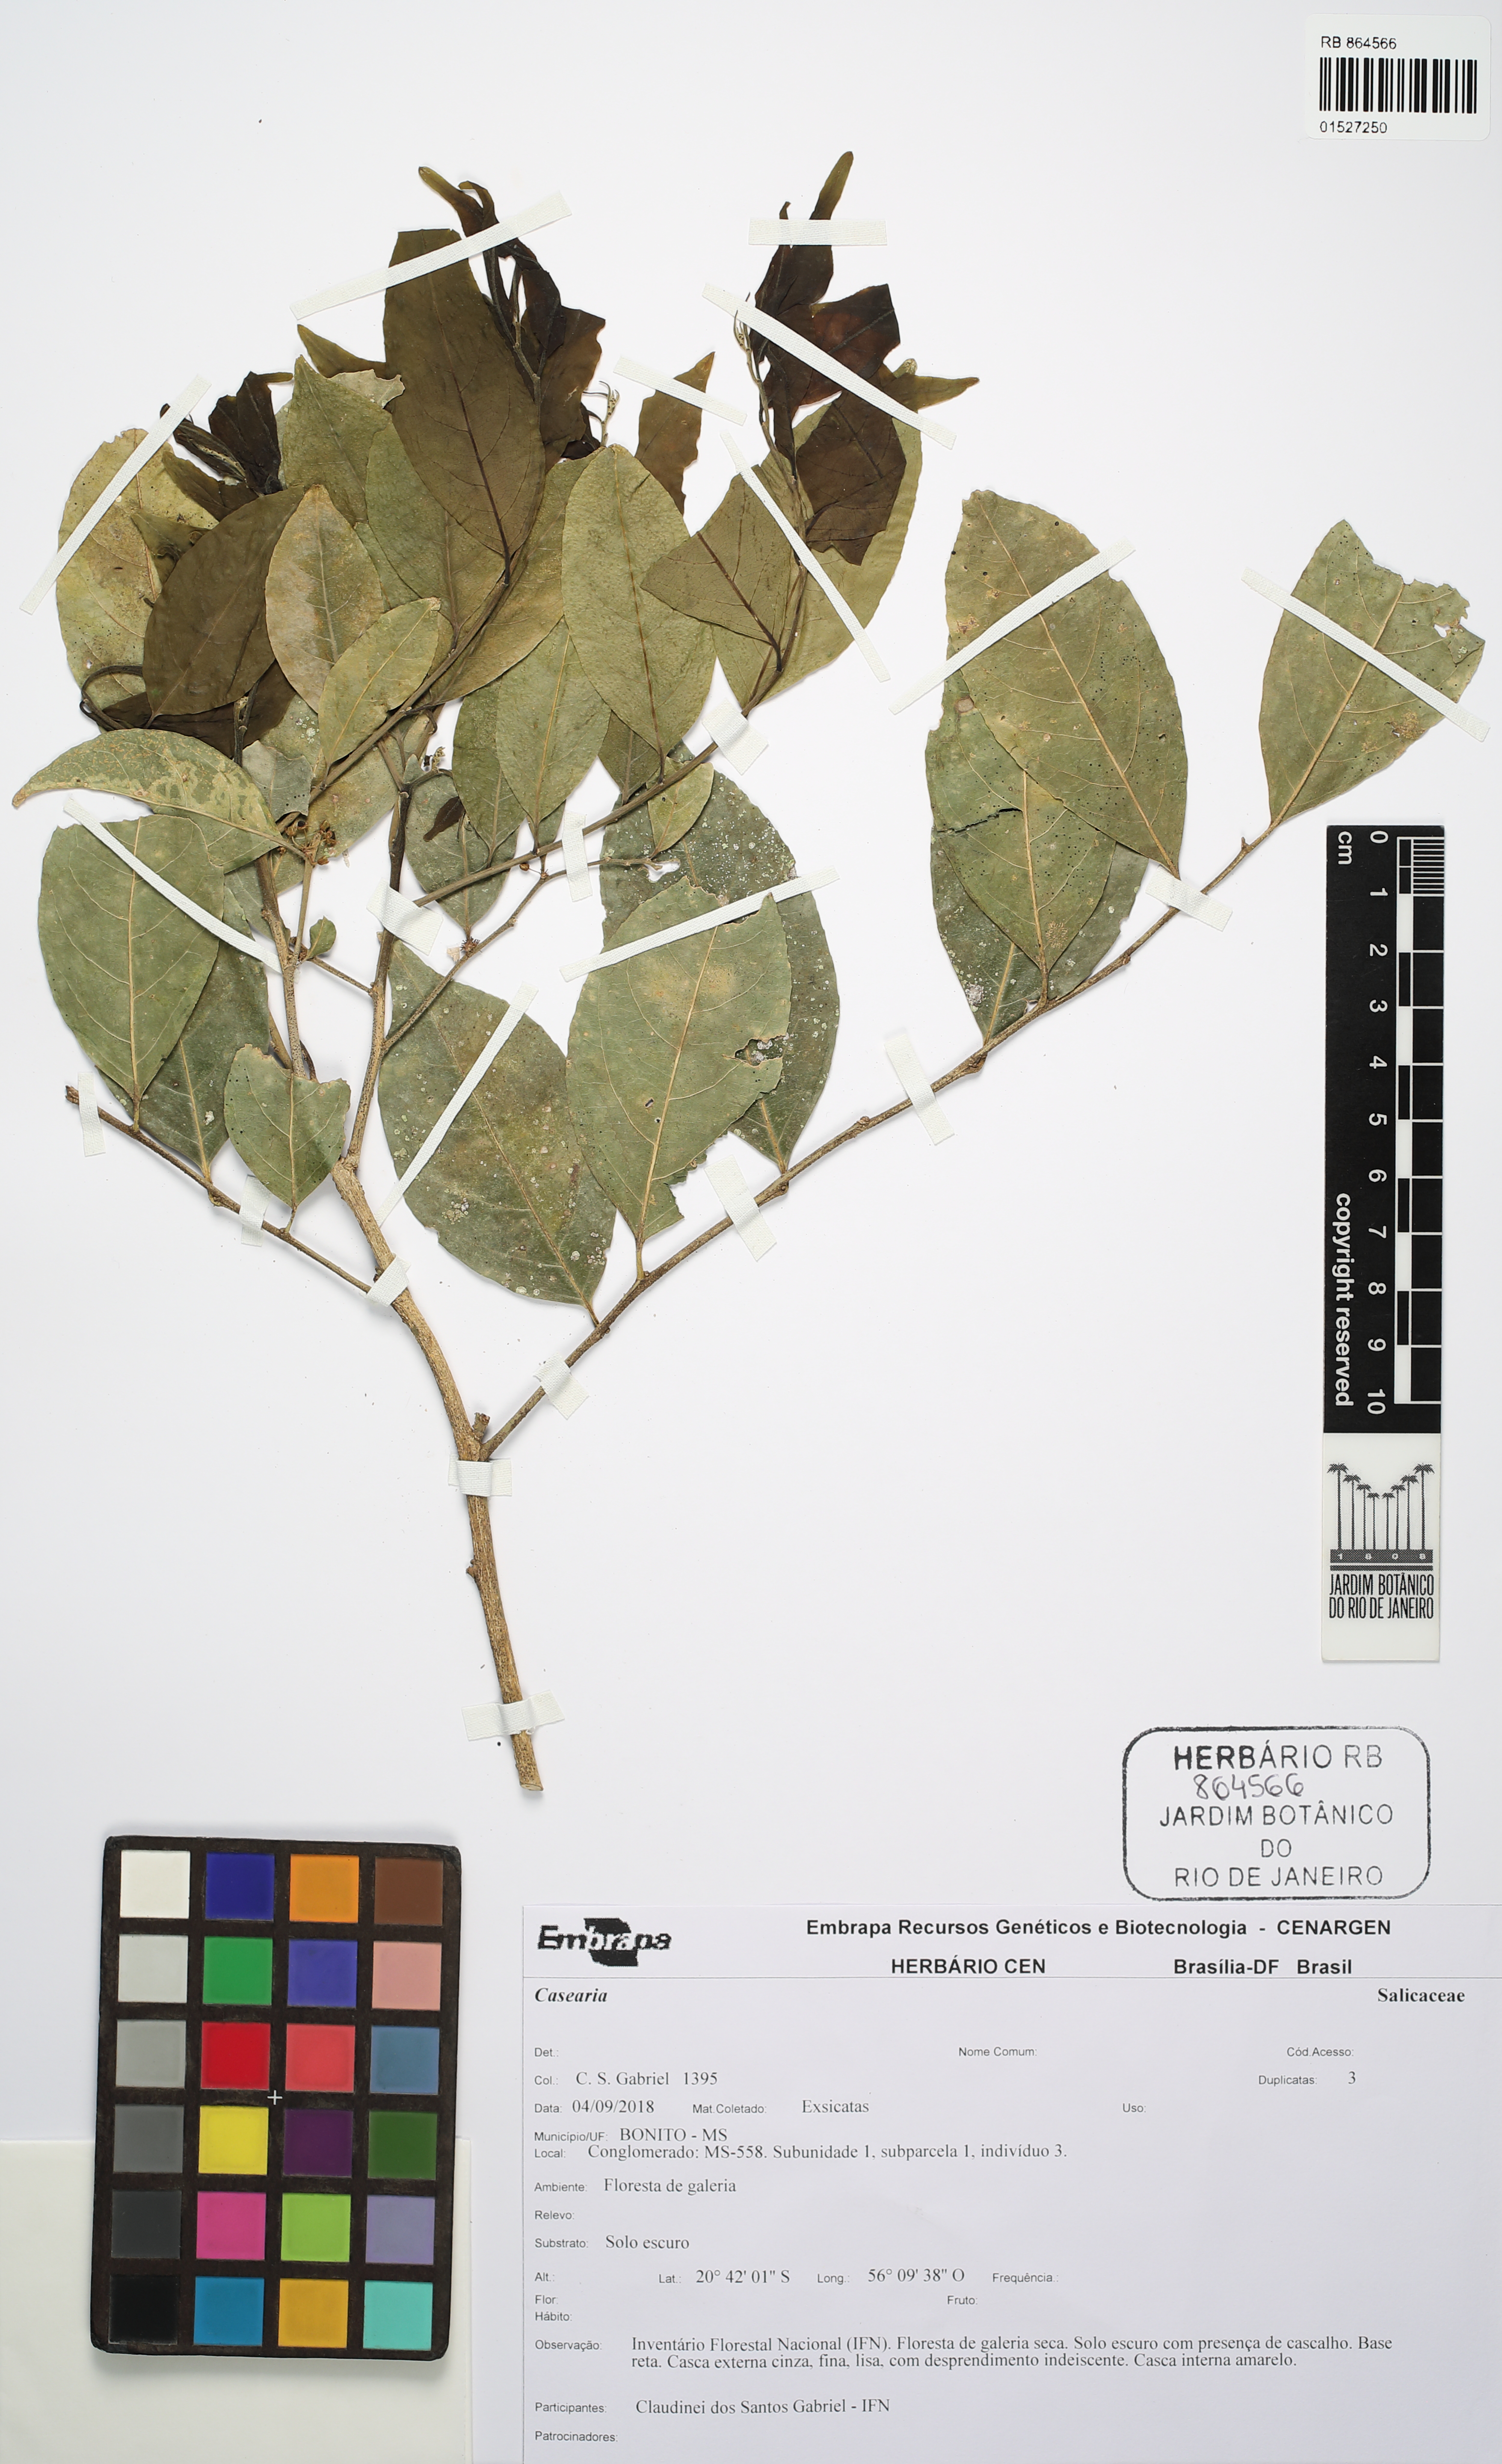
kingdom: Plantae
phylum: Tracheophyta
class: Magnoliopsida
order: Malpighiales
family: Salicaceae
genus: Casearia
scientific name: Casearia
